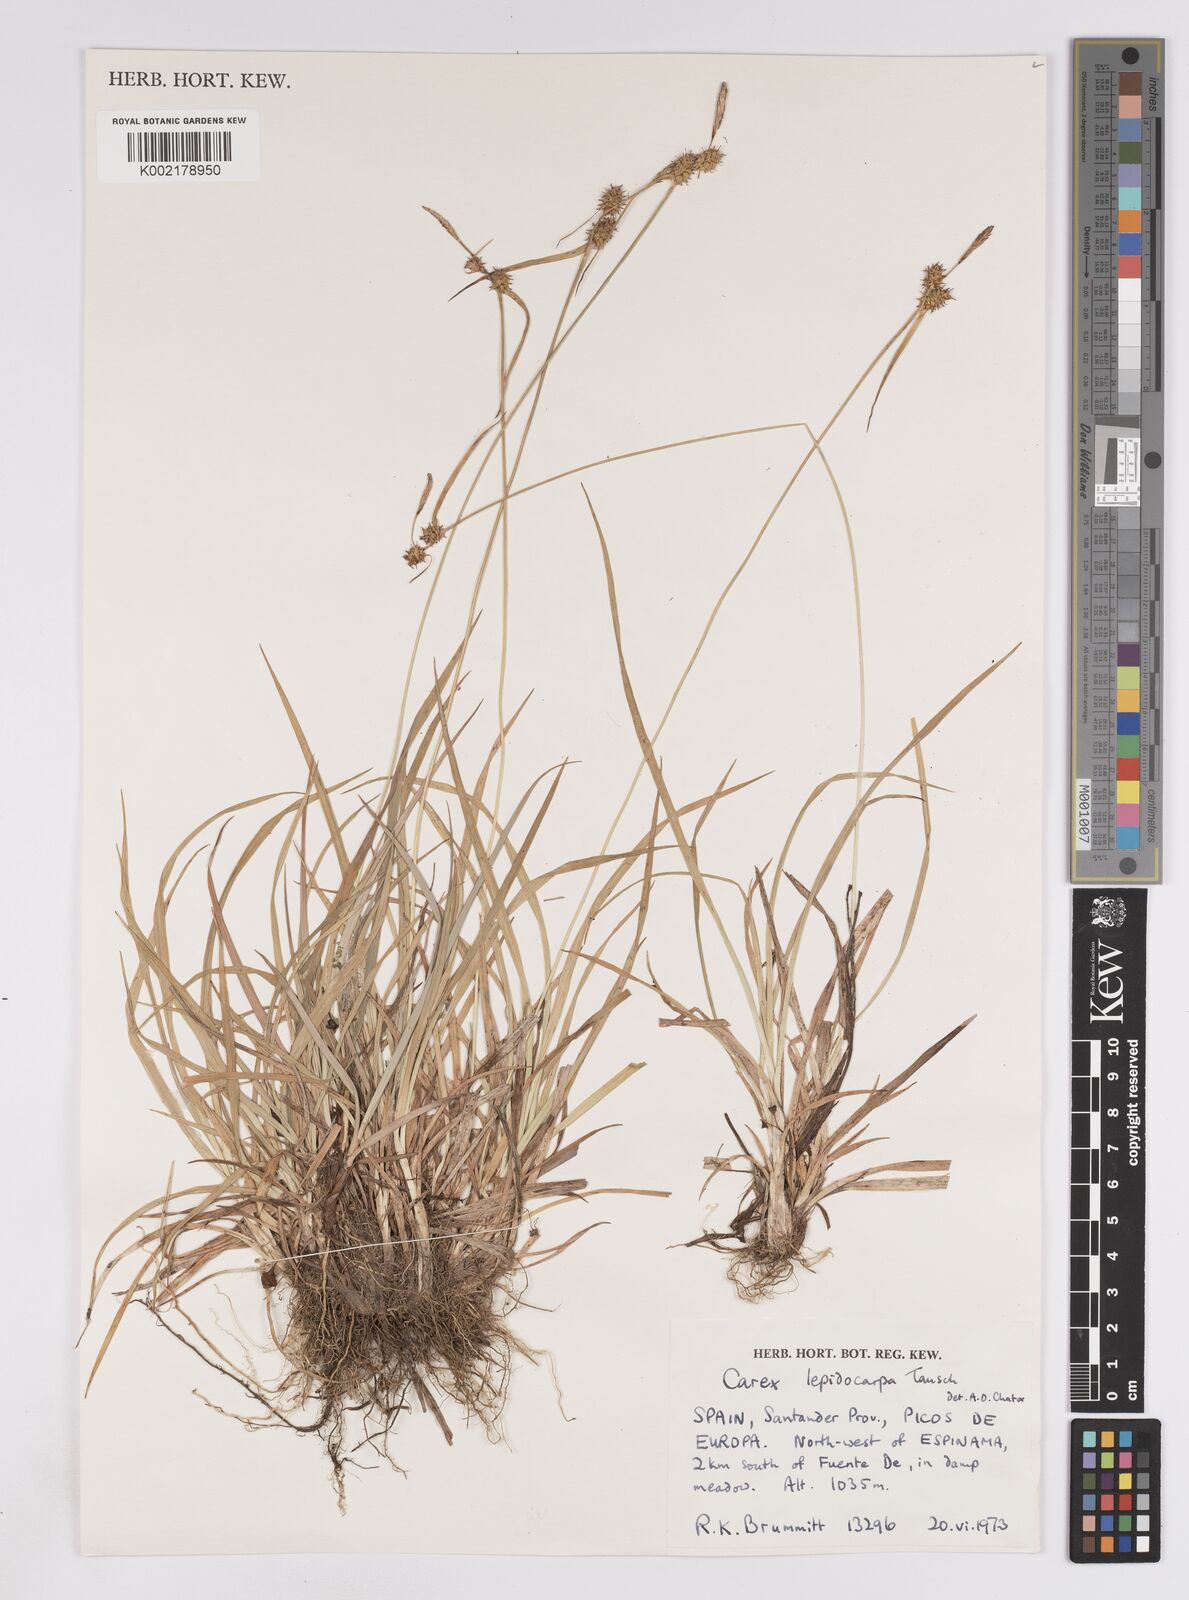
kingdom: Plantae
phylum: Tracheophyta
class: Liliopsida
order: Poales
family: Cyperaceae
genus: Carex
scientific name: Carex lepidocarpa
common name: Long-stalked yellow-sedge
